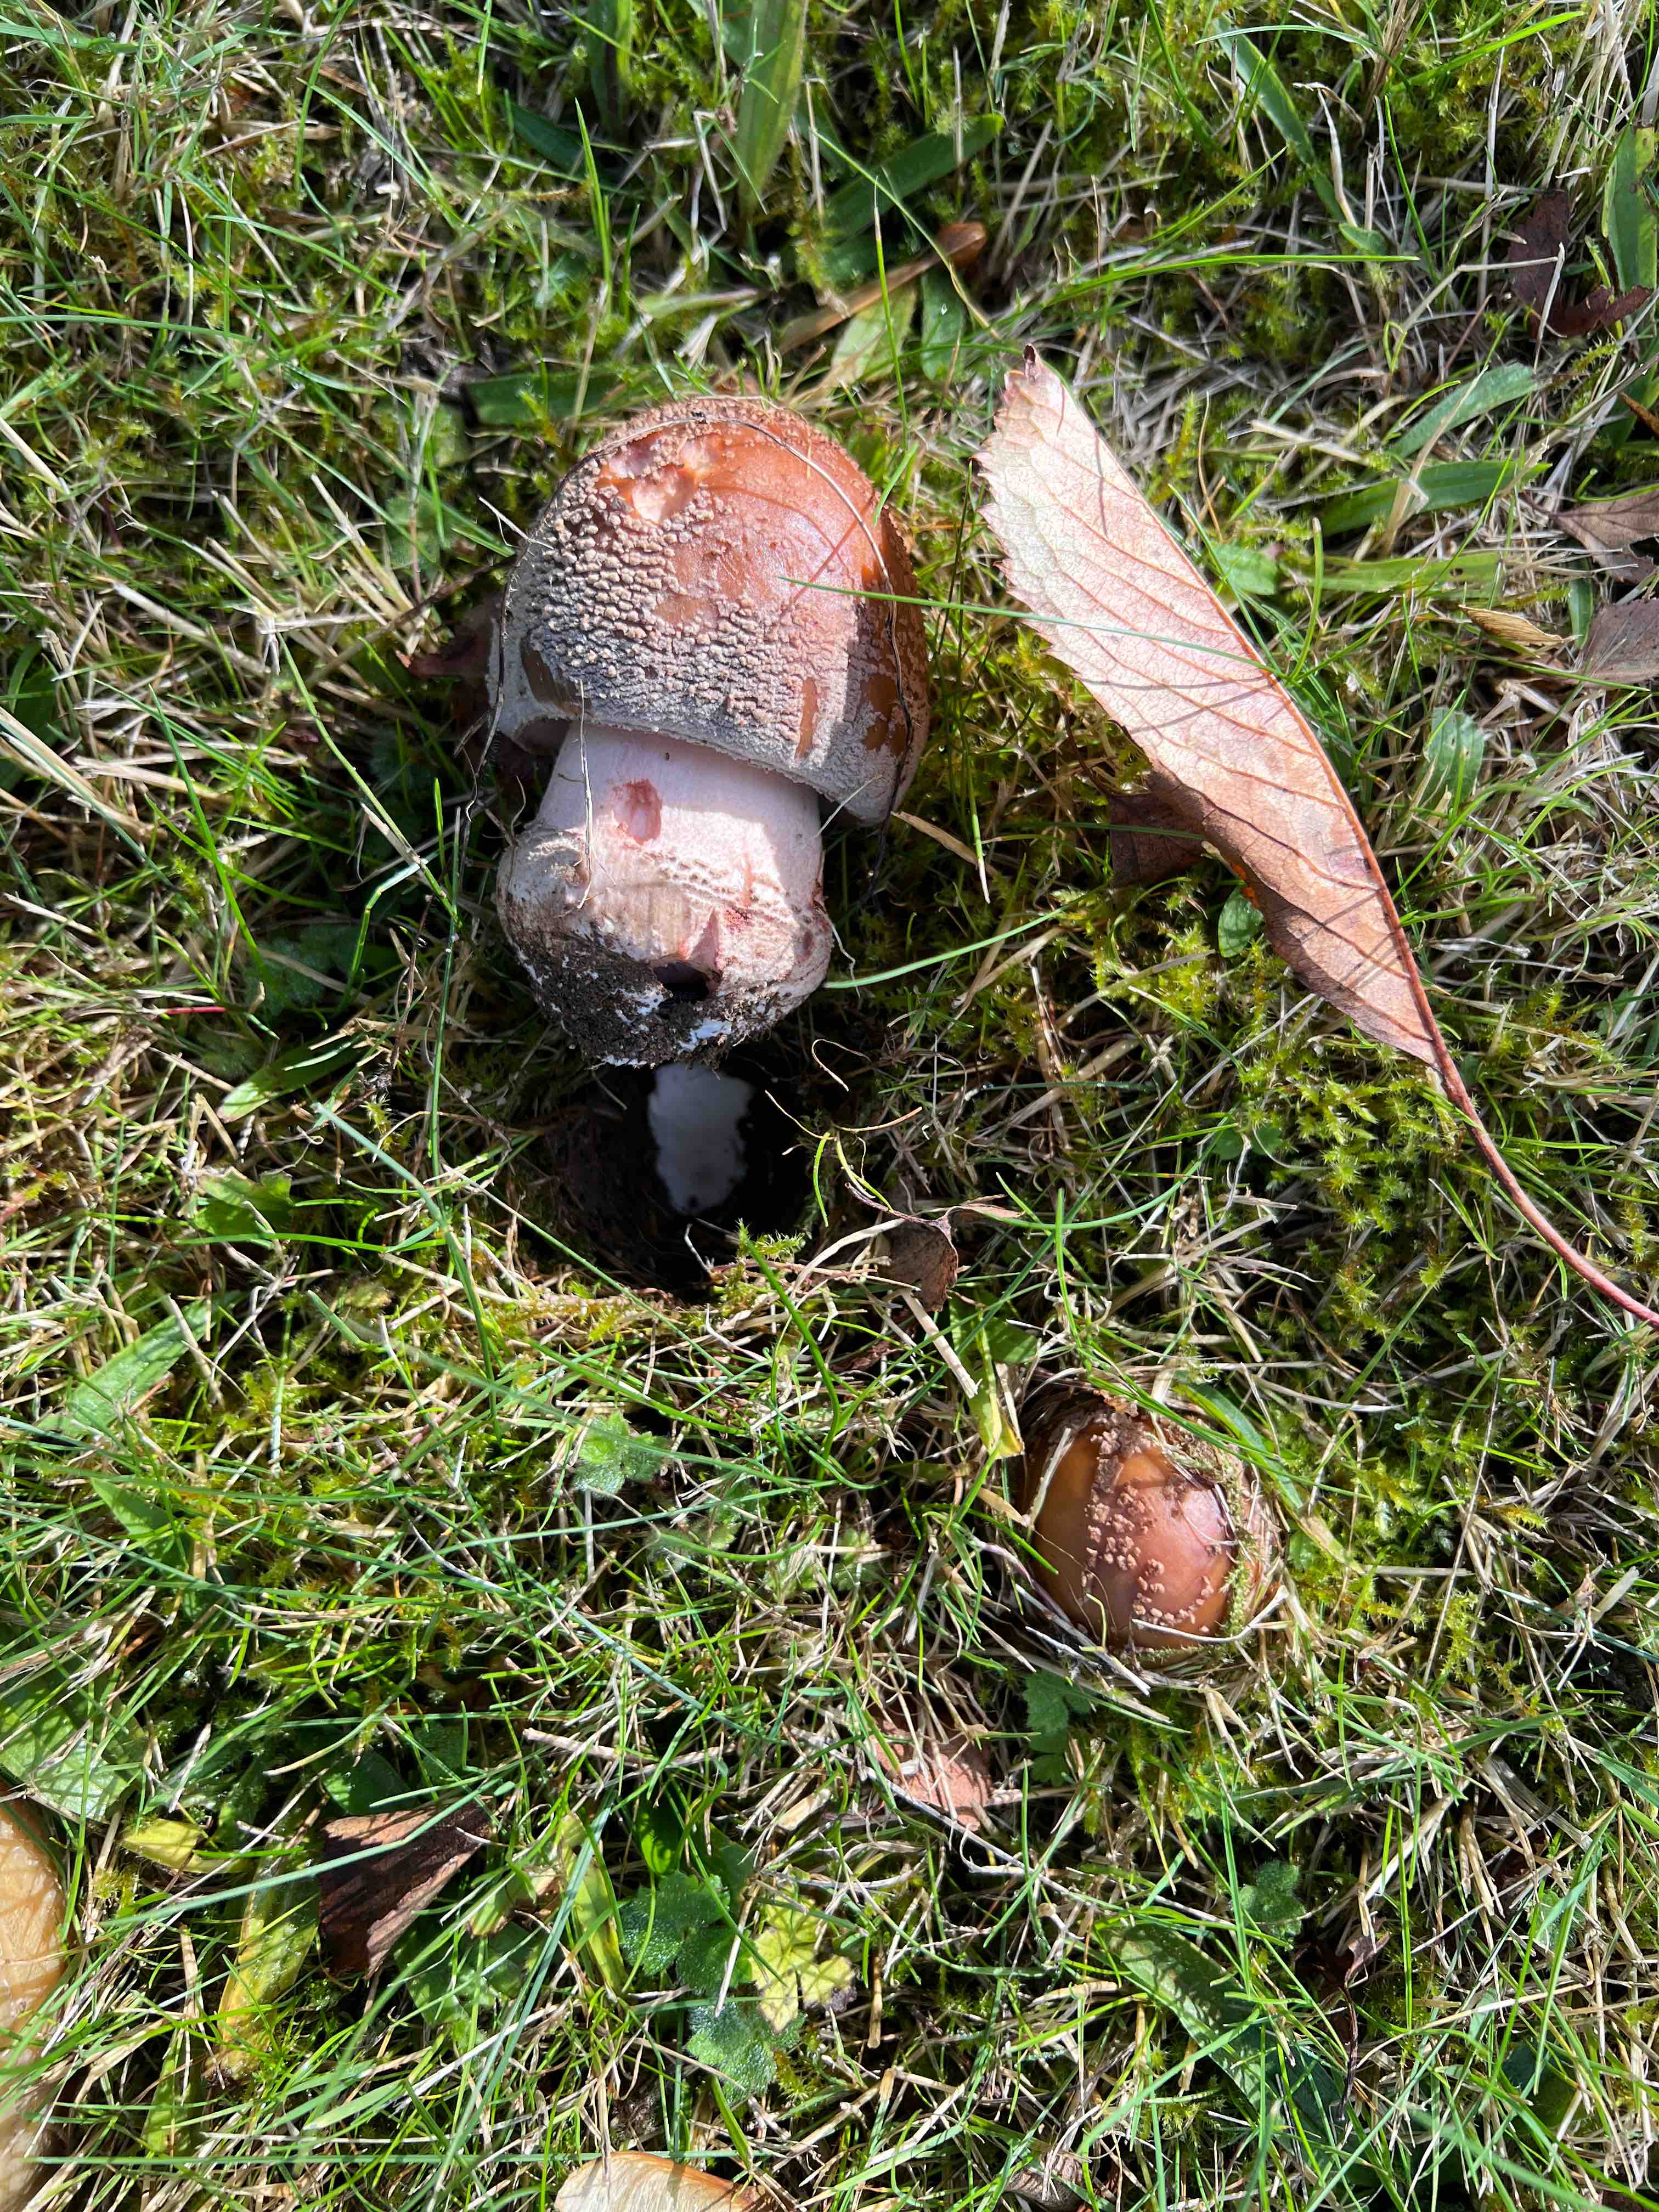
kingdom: Fungi
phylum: Basidiomycota
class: Agaricomycetes
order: Agaricales
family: Amanitaceae
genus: Amanita
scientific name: Amanita rubescens
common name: rødmende fluesvamp
